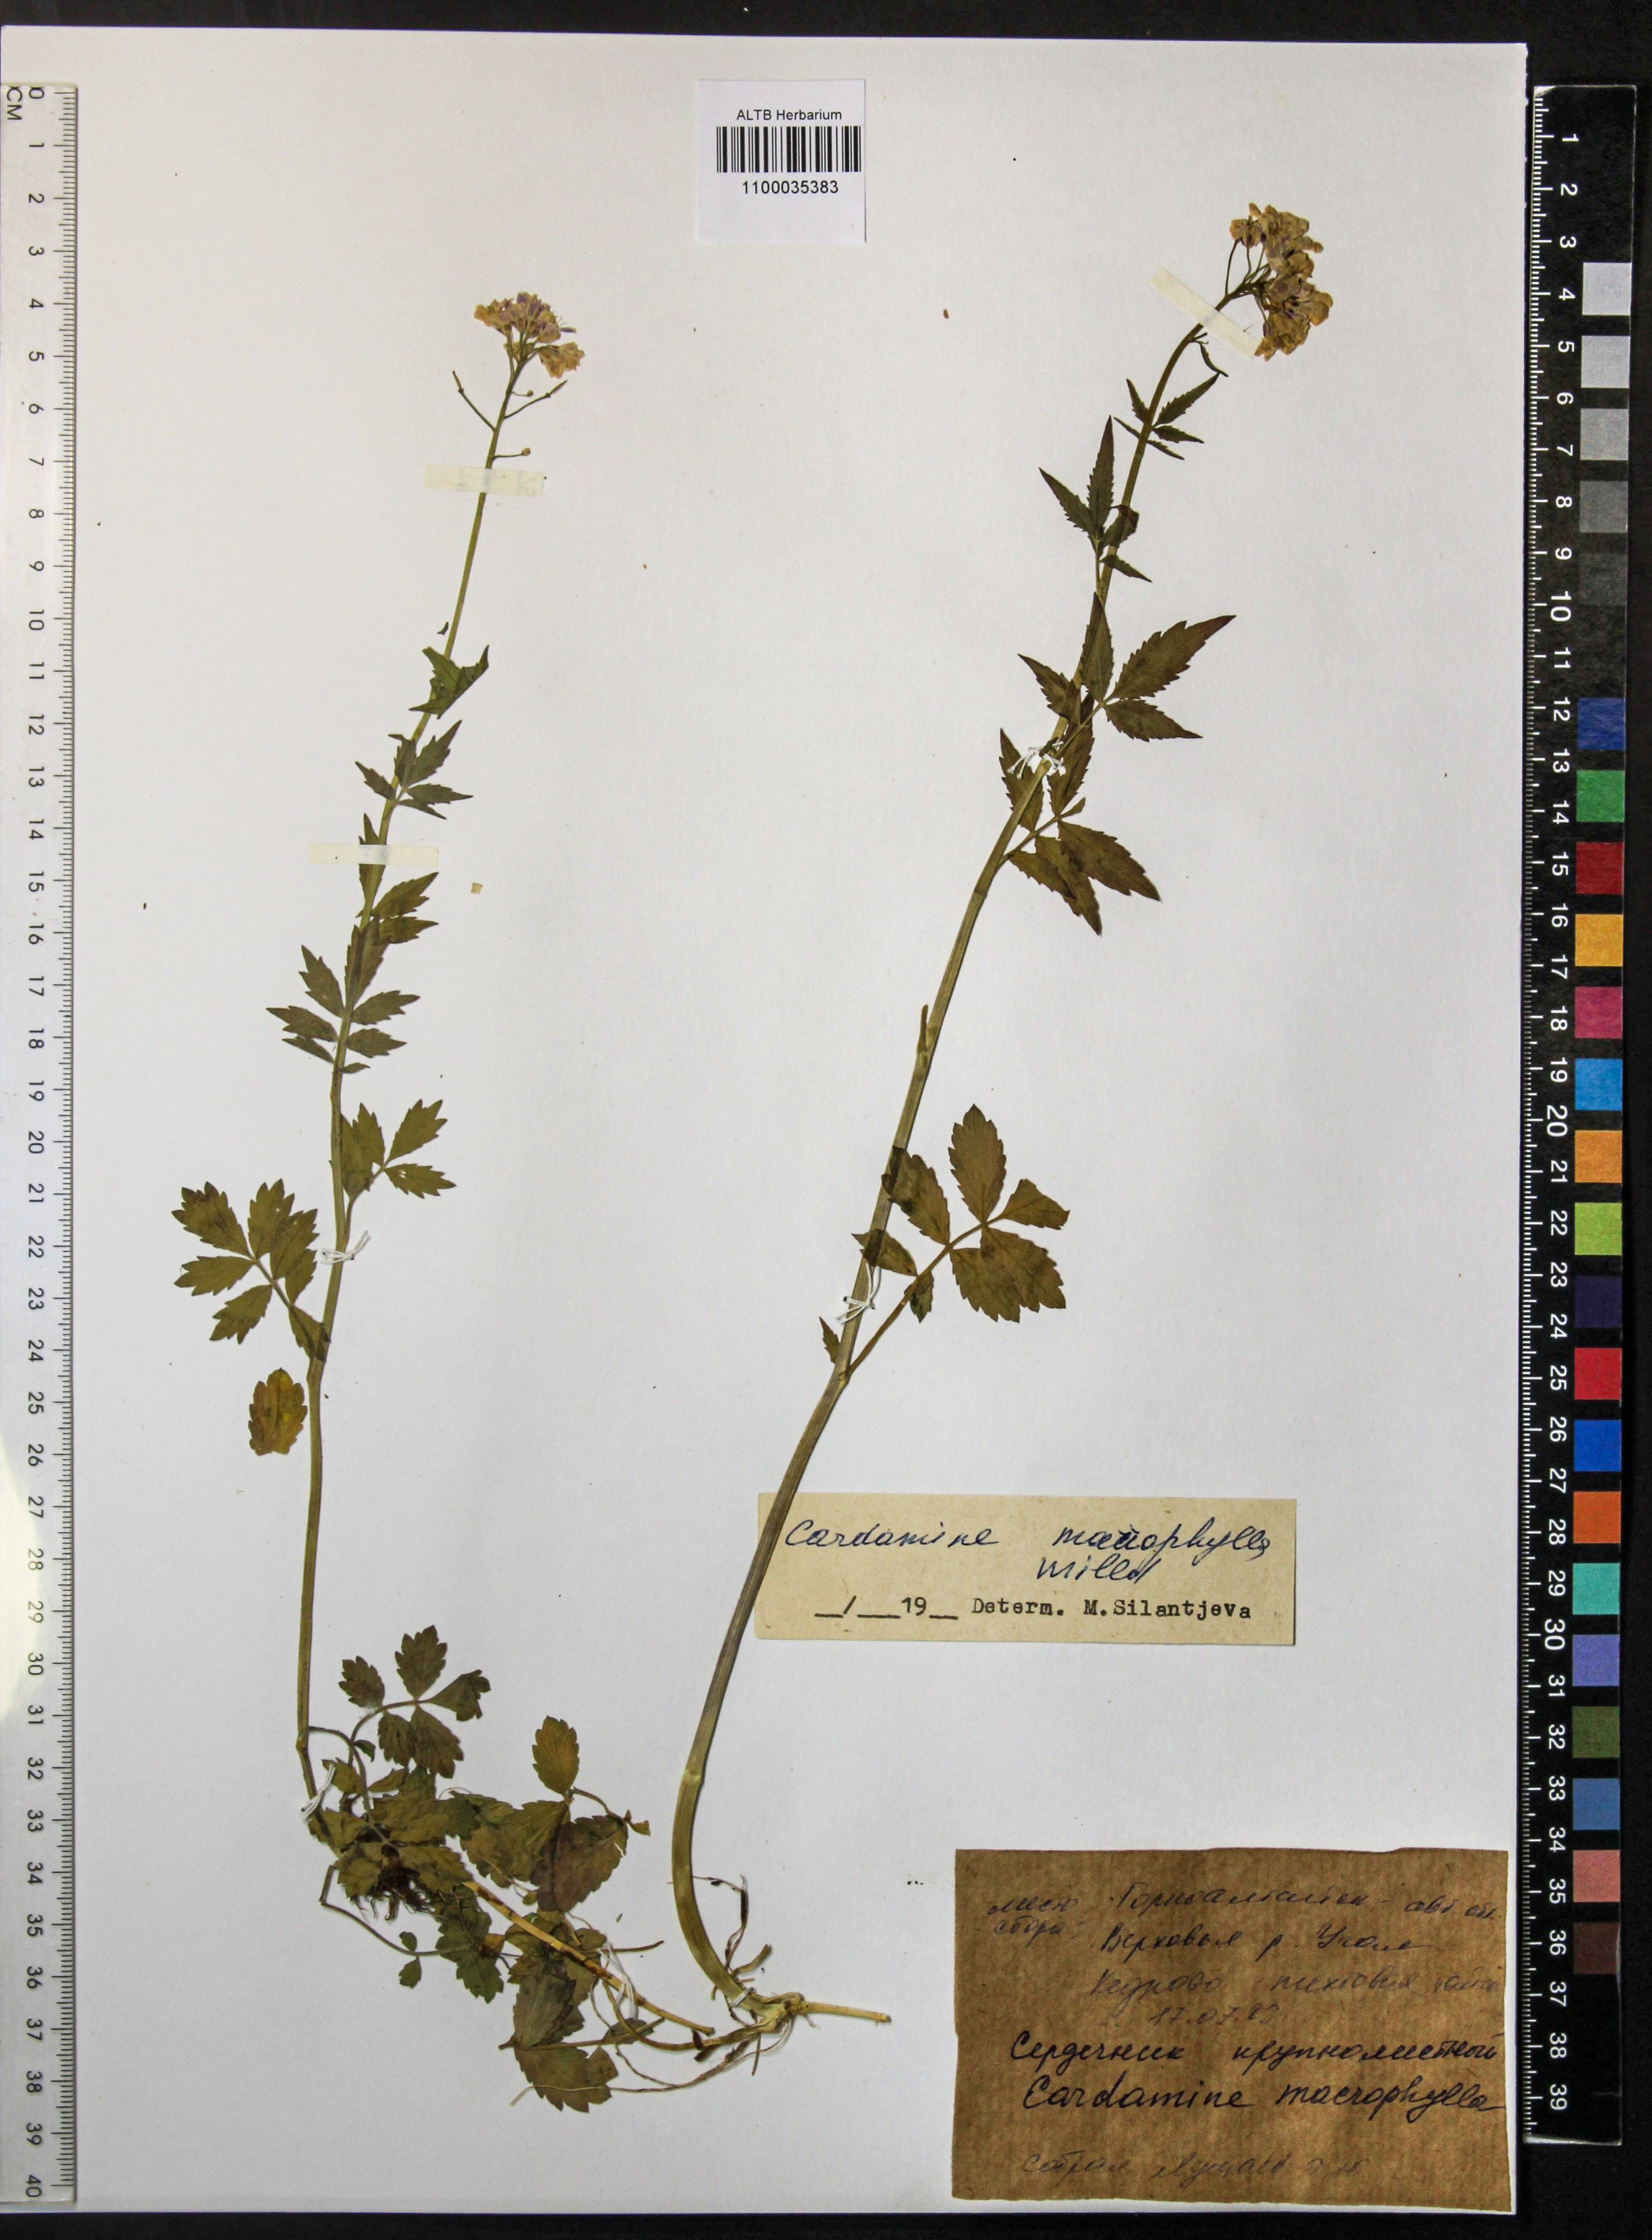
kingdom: Plantae
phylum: Tracheophyta
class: Magnoliopsida
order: Brassicales
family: Brassicaceae
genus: Cardamine
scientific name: Cardamine macrophylla
